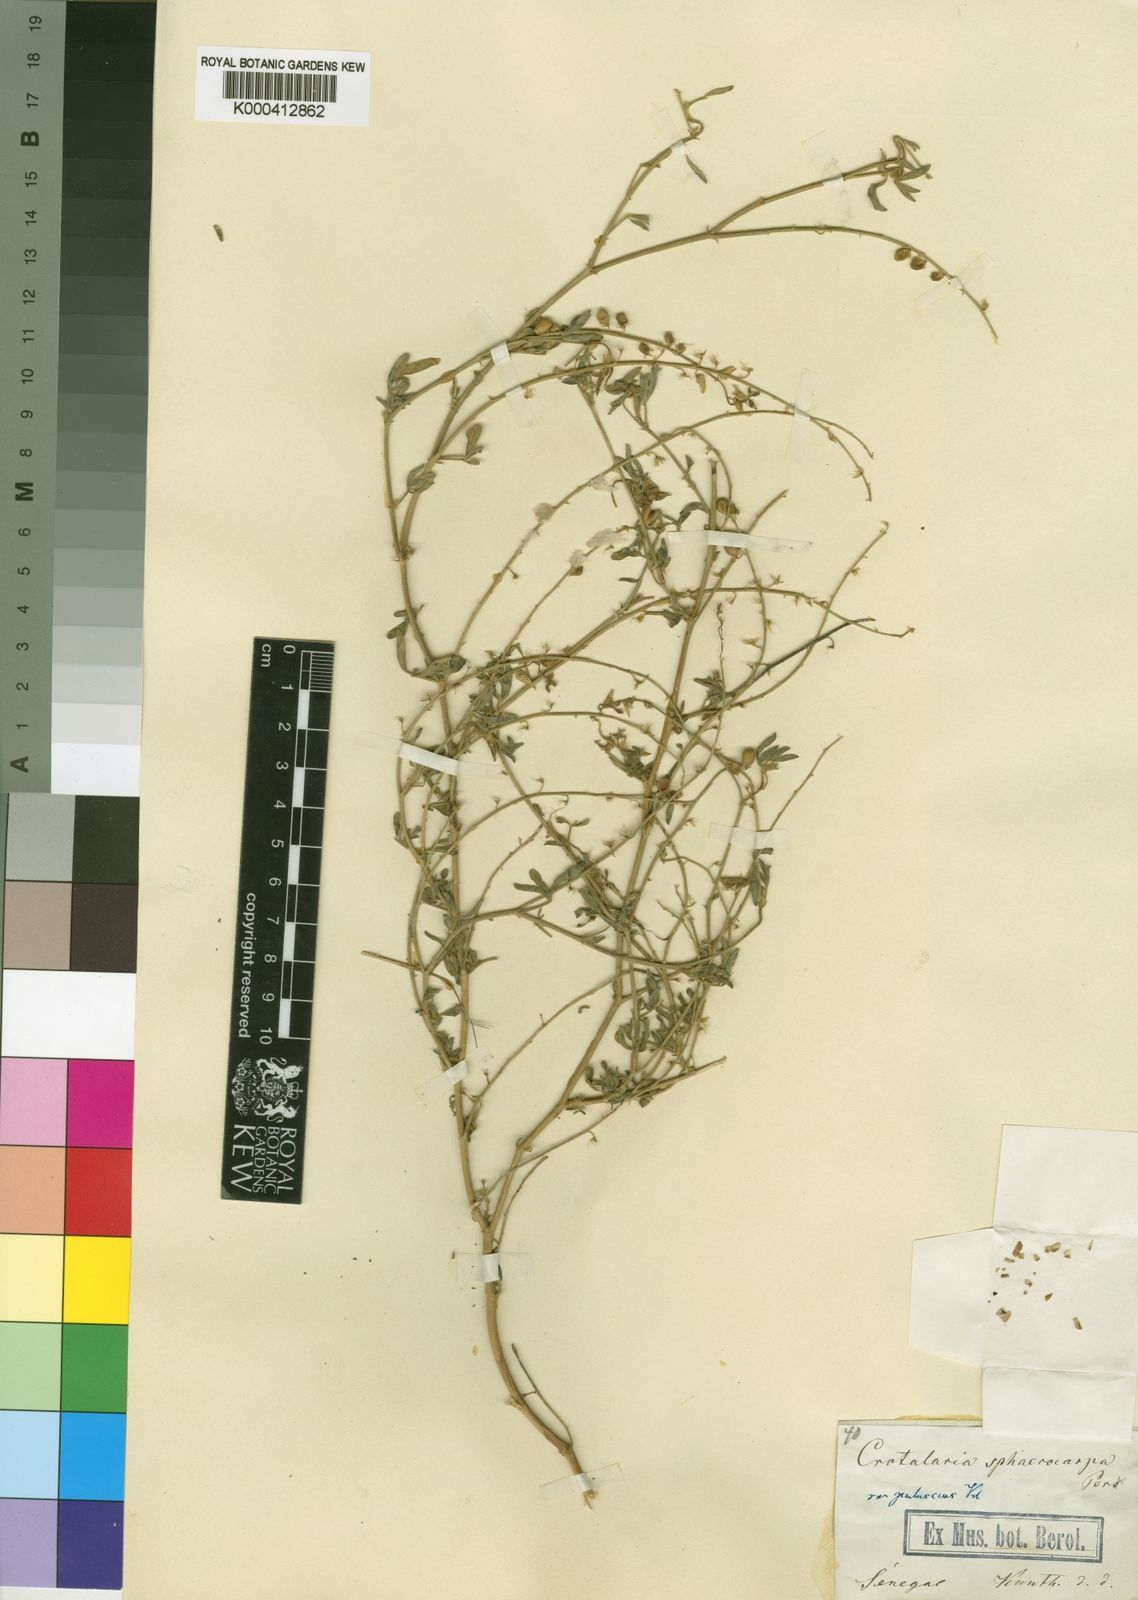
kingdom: Plantae
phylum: Tracheophyta
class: Magnoliopsida
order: Fabales
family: Fabaceae
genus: Crotalaria
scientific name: Crotalaria sphaerocarpa
